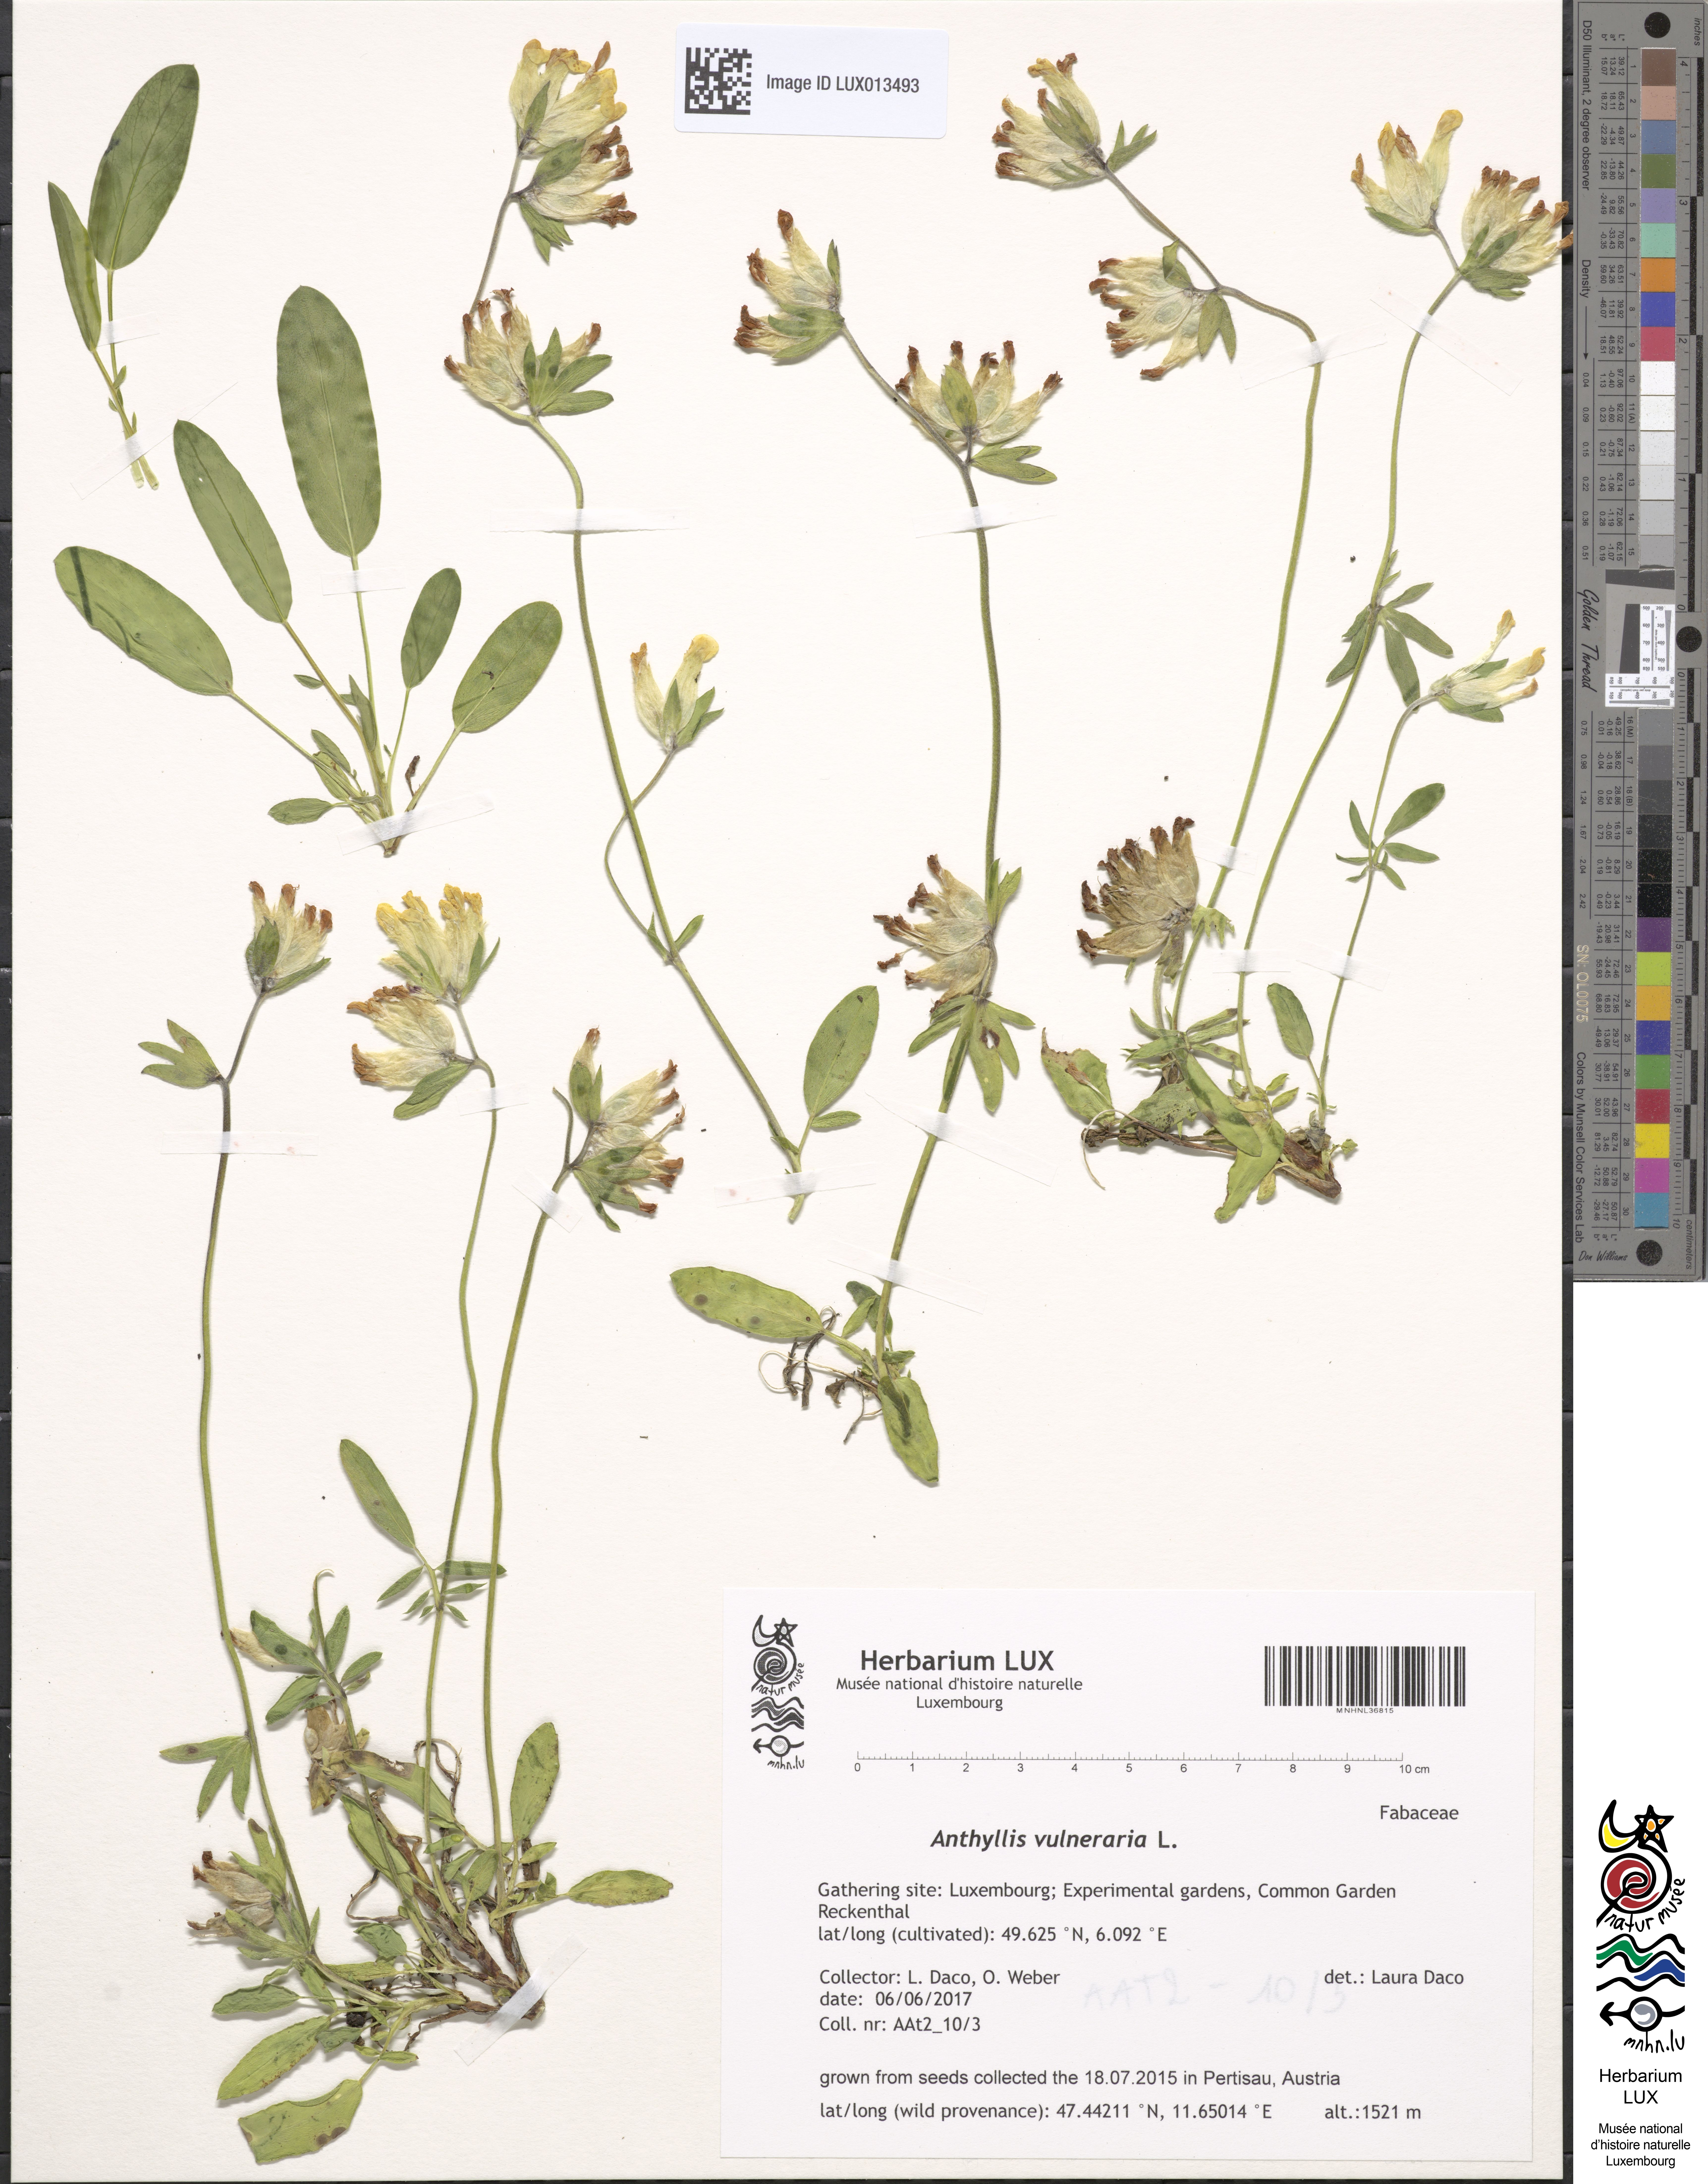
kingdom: Plantae
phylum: Tracheophyta
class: Magnoliopsida
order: Fabales
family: Fabaceae
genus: Anthyllis
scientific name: Anthyllis vulneraria
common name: Kidney vetch
